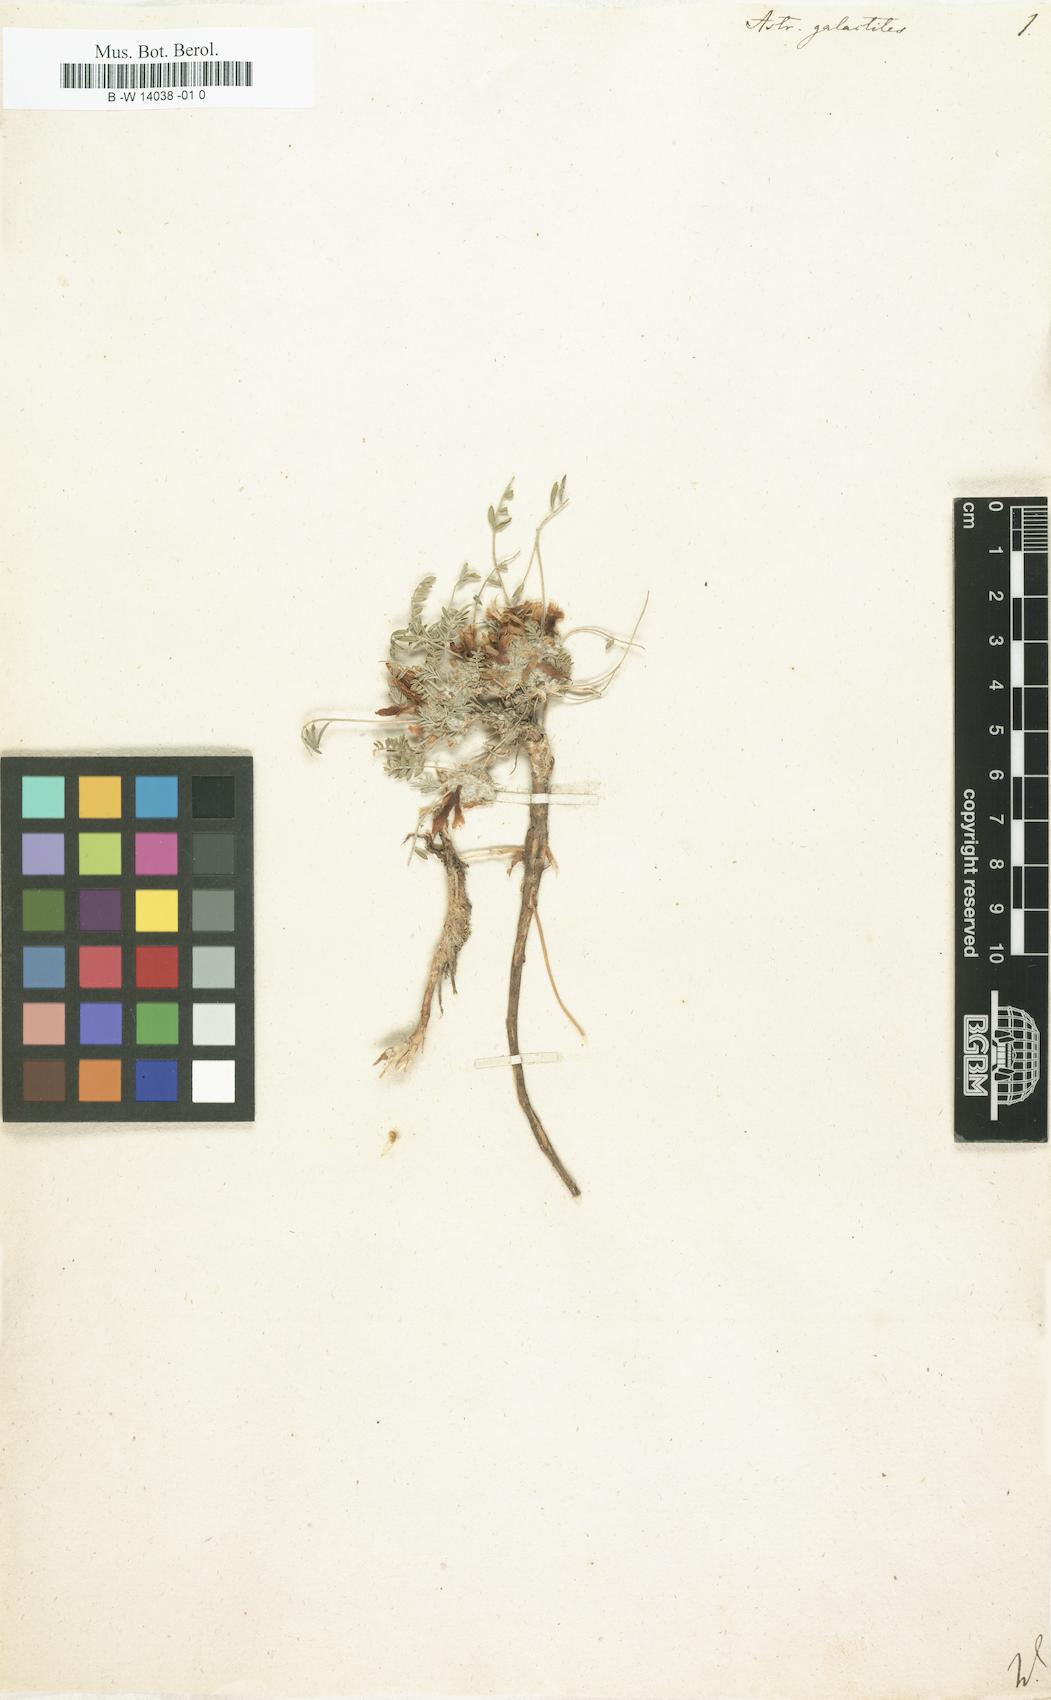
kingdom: Plantae
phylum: Tracheophyta
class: Magnoliopsida
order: Fabales
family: Fabaceae
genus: Astragalus
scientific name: Astragalus galactites
